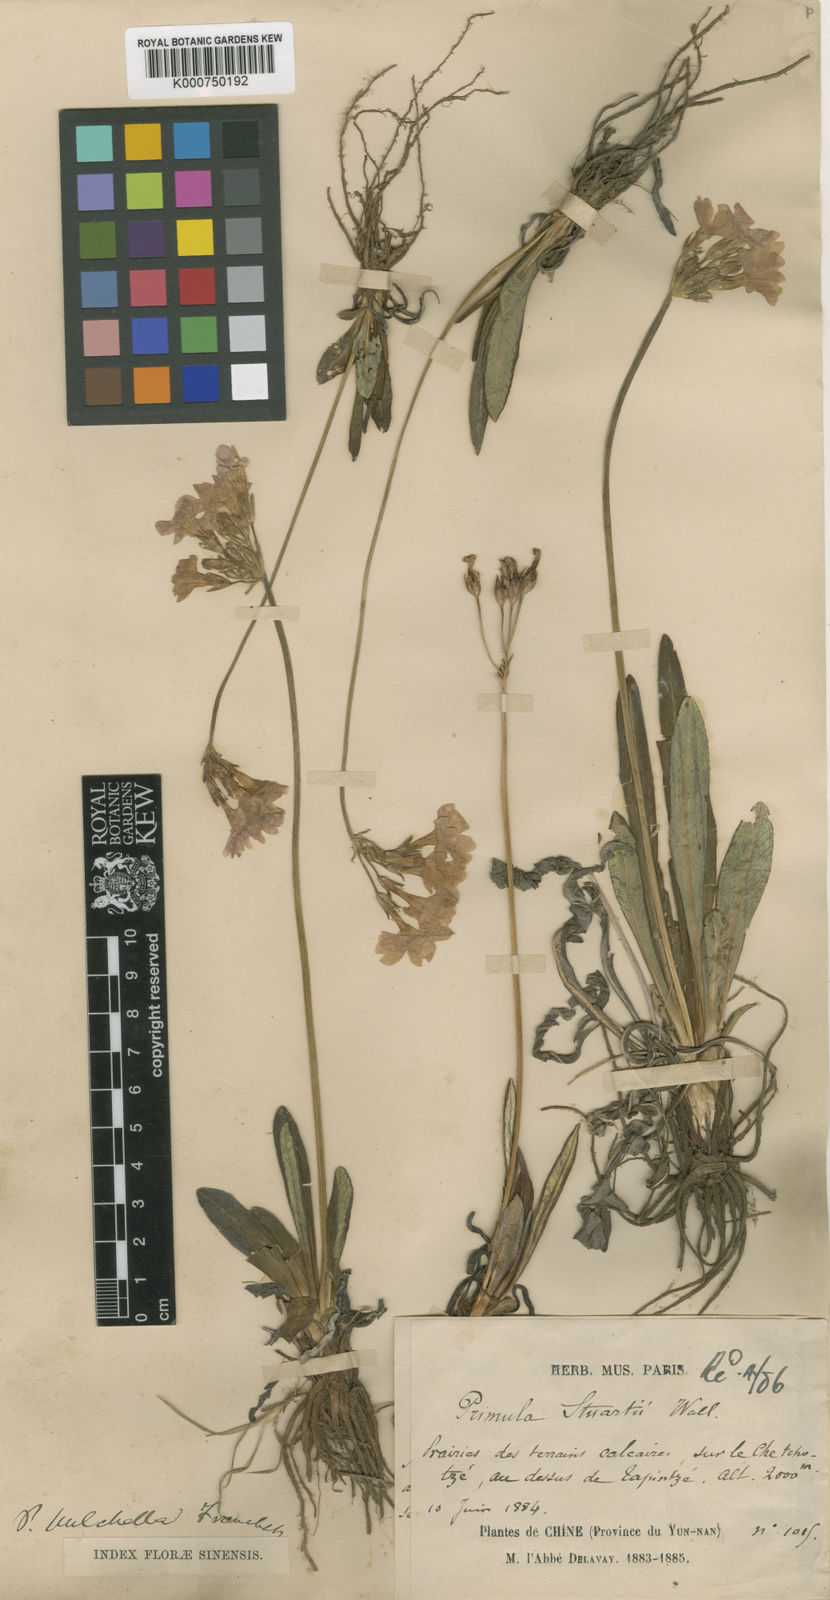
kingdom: Plantae
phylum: Tracheophyta
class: Magnoliopsida
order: Ericales
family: Primulaceae
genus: Primula
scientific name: Primula pulchella
